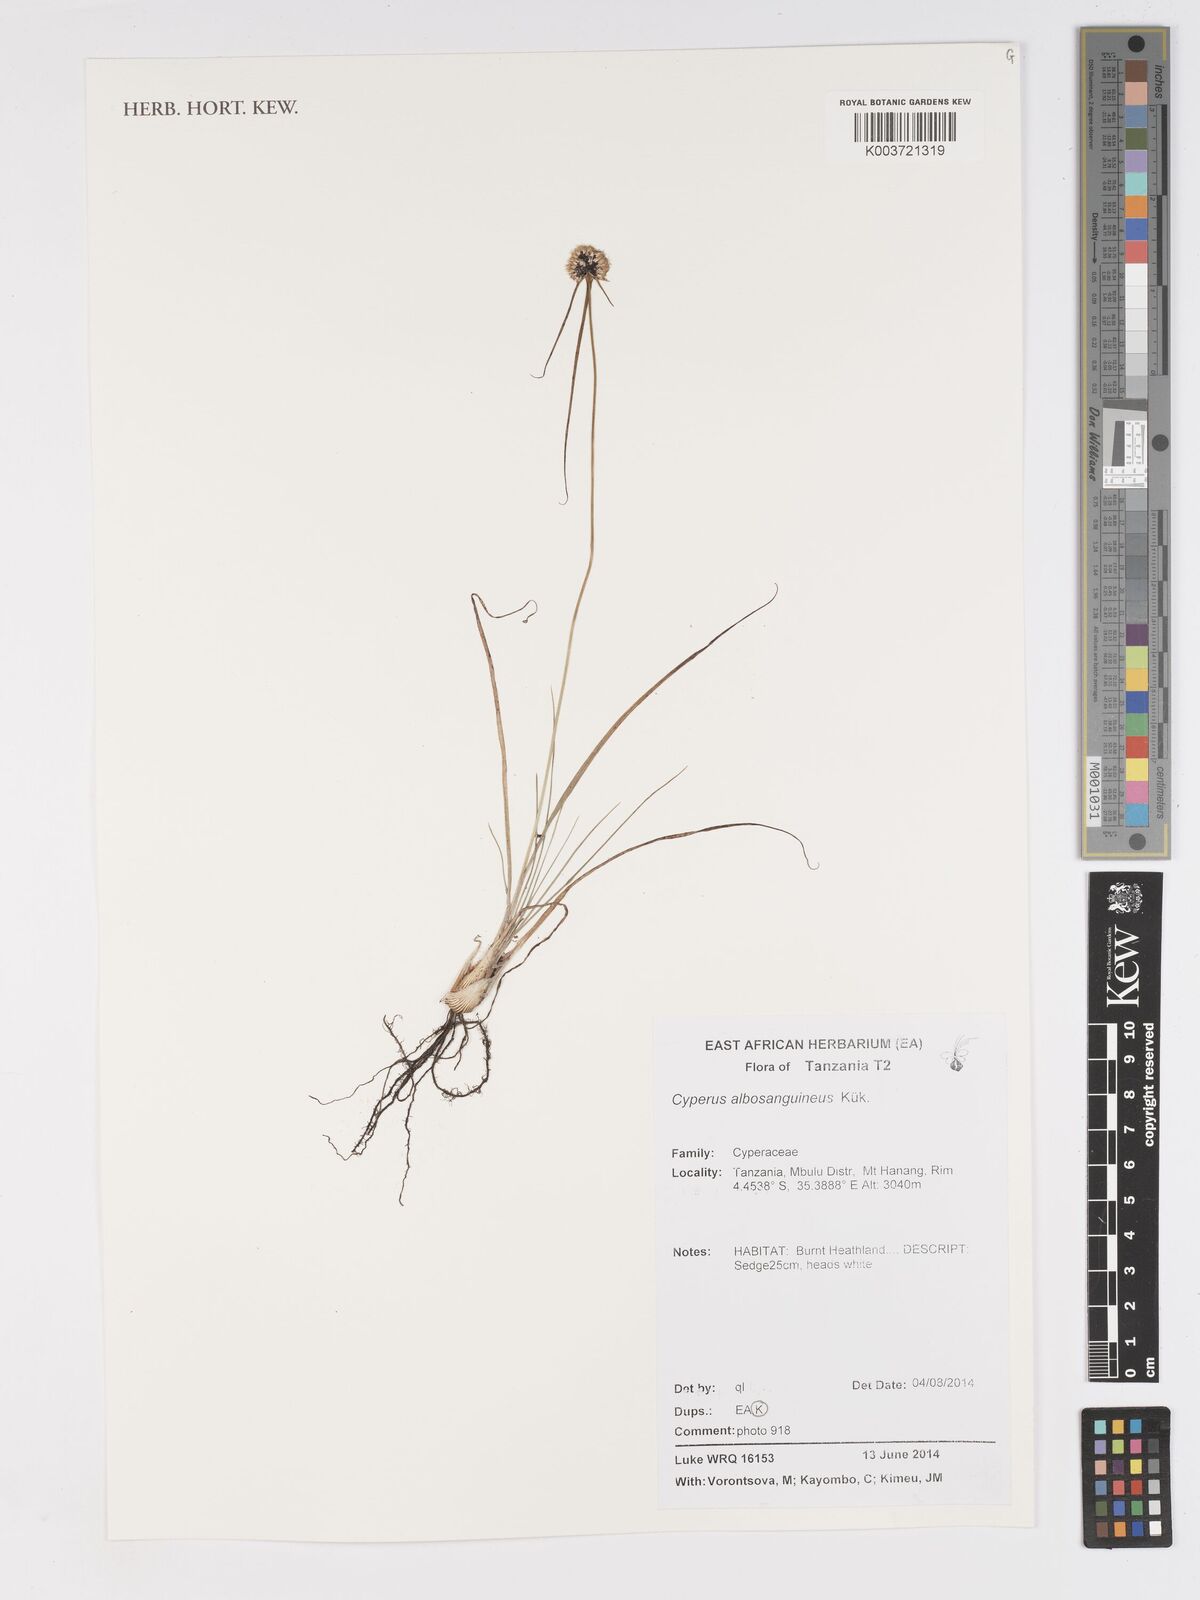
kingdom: Plantae
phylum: Tracheophyta
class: Liliopsida
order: Poales
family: Cyperaceae
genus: Cyperus
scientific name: Cyperus albosanguineus
